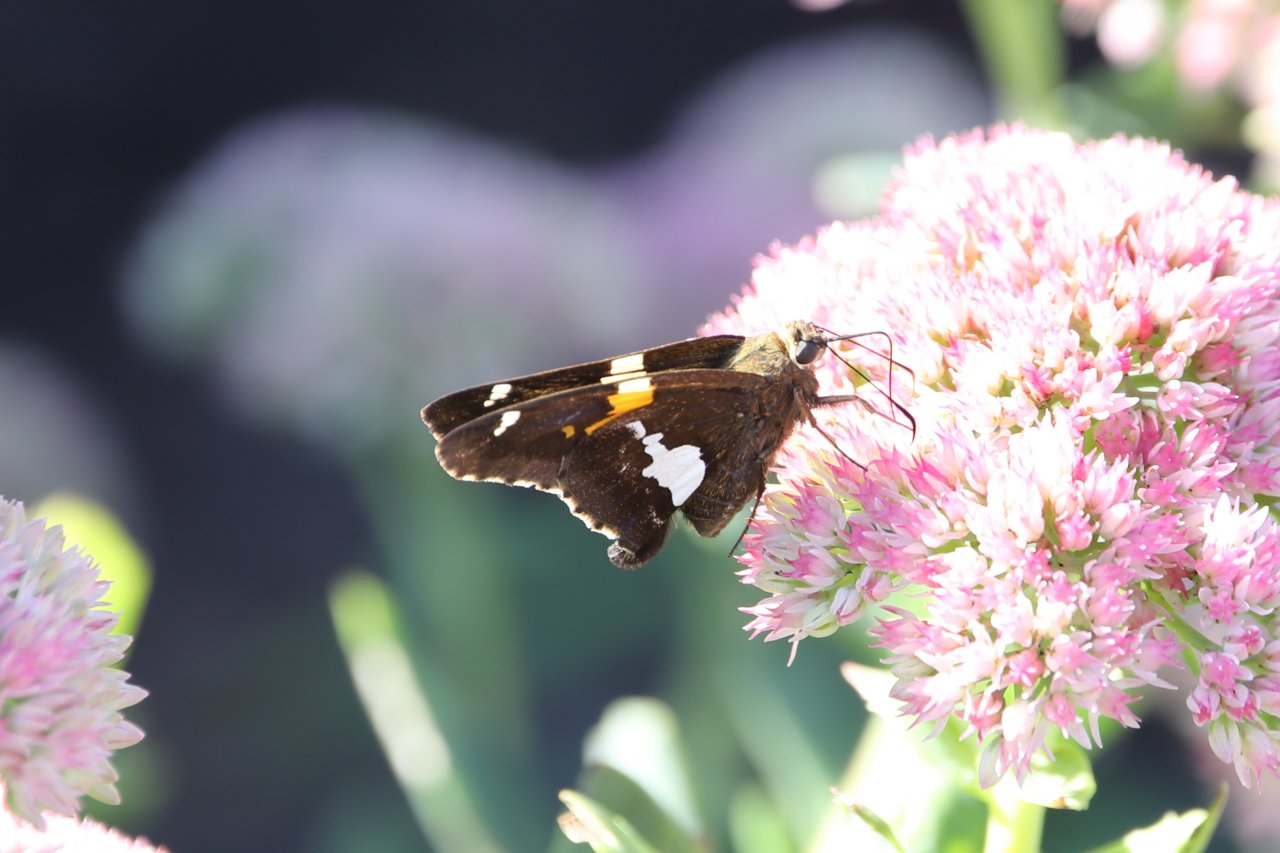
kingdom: Animalia
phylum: Arthropoda
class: Insecta
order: Lepidoptera
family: Hesperiidae
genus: Epargyreus
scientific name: Epargyreus clarus
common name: Silver-spotted Skipper
